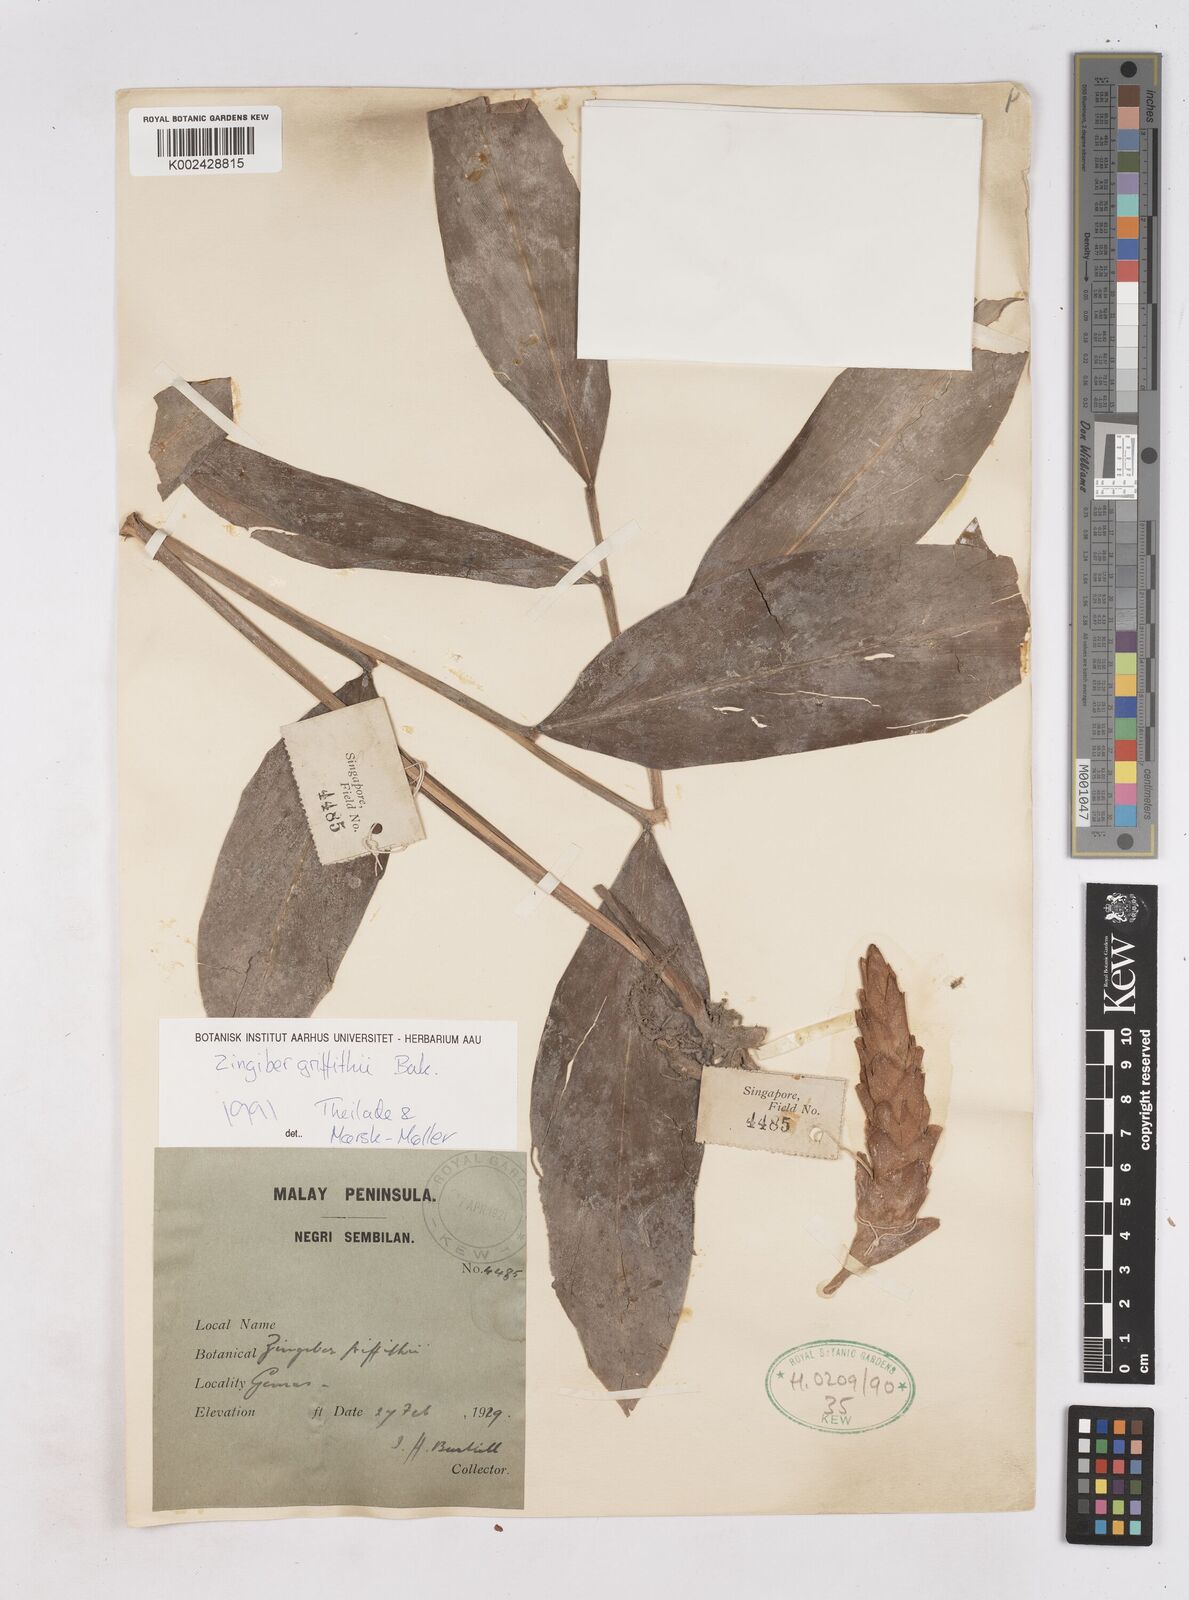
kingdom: Plantae
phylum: Tracheophyta
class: Liliopsida
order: Zingiberales
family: Zingiberaceae
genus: Zingiber
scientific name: Zingiber griffithii
